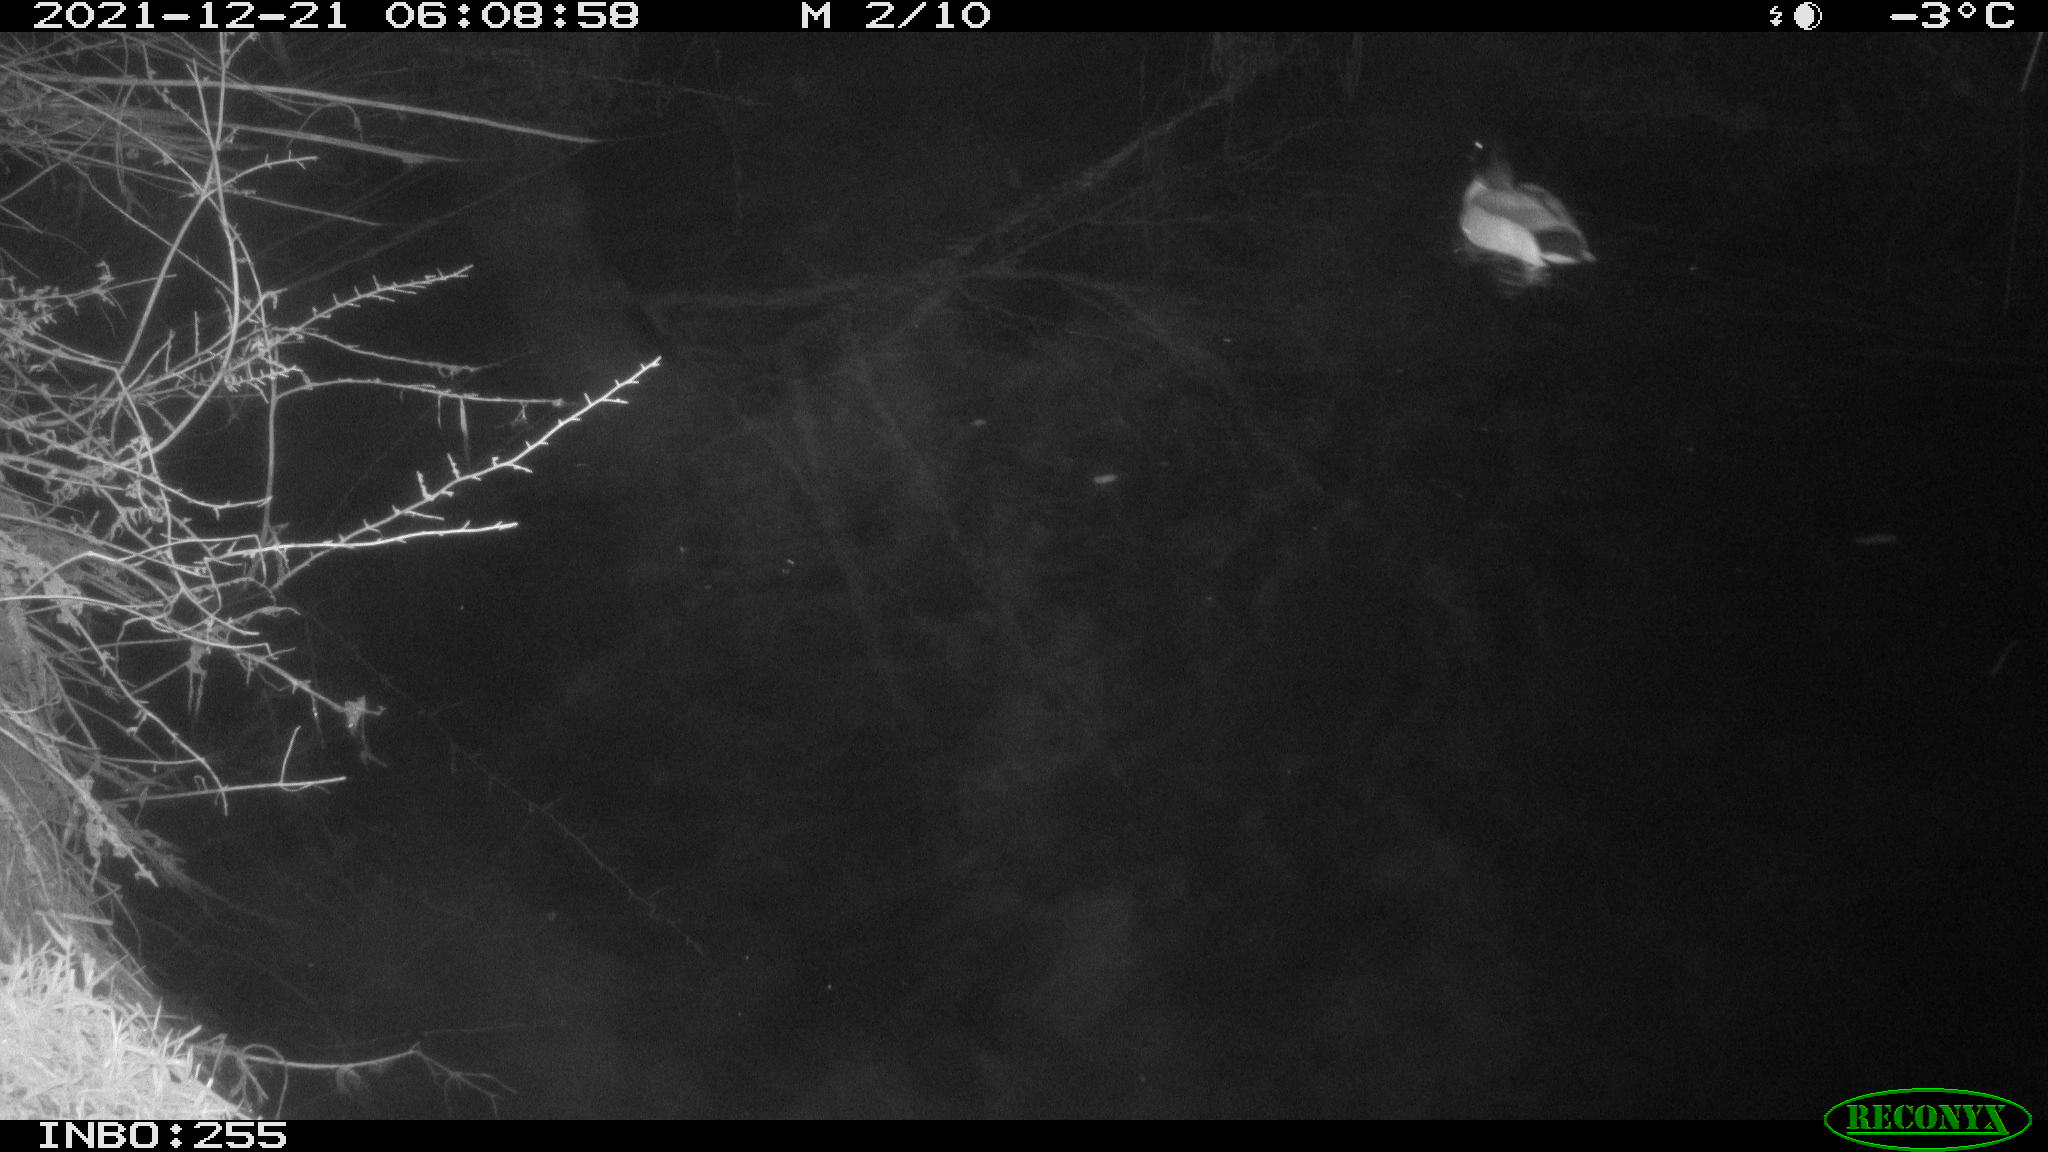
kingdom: Animalia
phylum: Chordata
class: Aves
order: Anseriformes
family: Anatidae
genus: Anas
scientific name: Anas platyrhynchos
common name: Mallard
